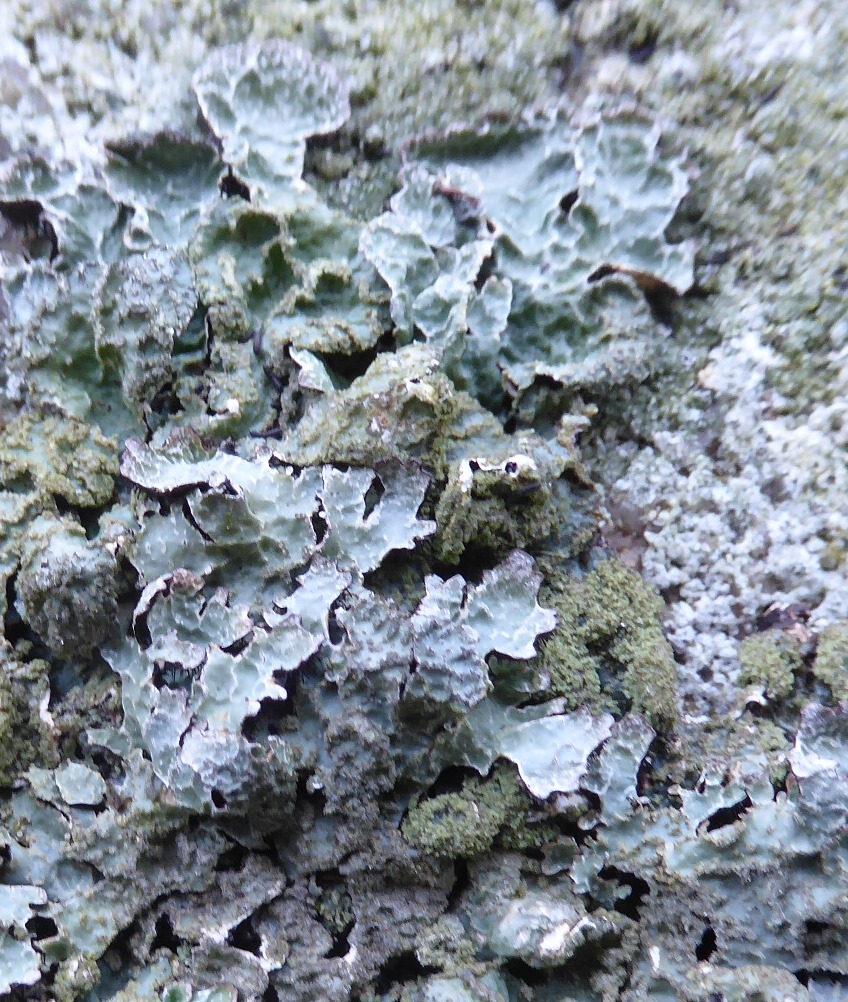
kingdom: Fungi
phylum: Ascomycota
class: Lecanoromycetes
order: Lecanorales
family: Parmeliaceae
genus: Parmelia
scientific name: Parmelia saxatilis
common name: farve-skållav
